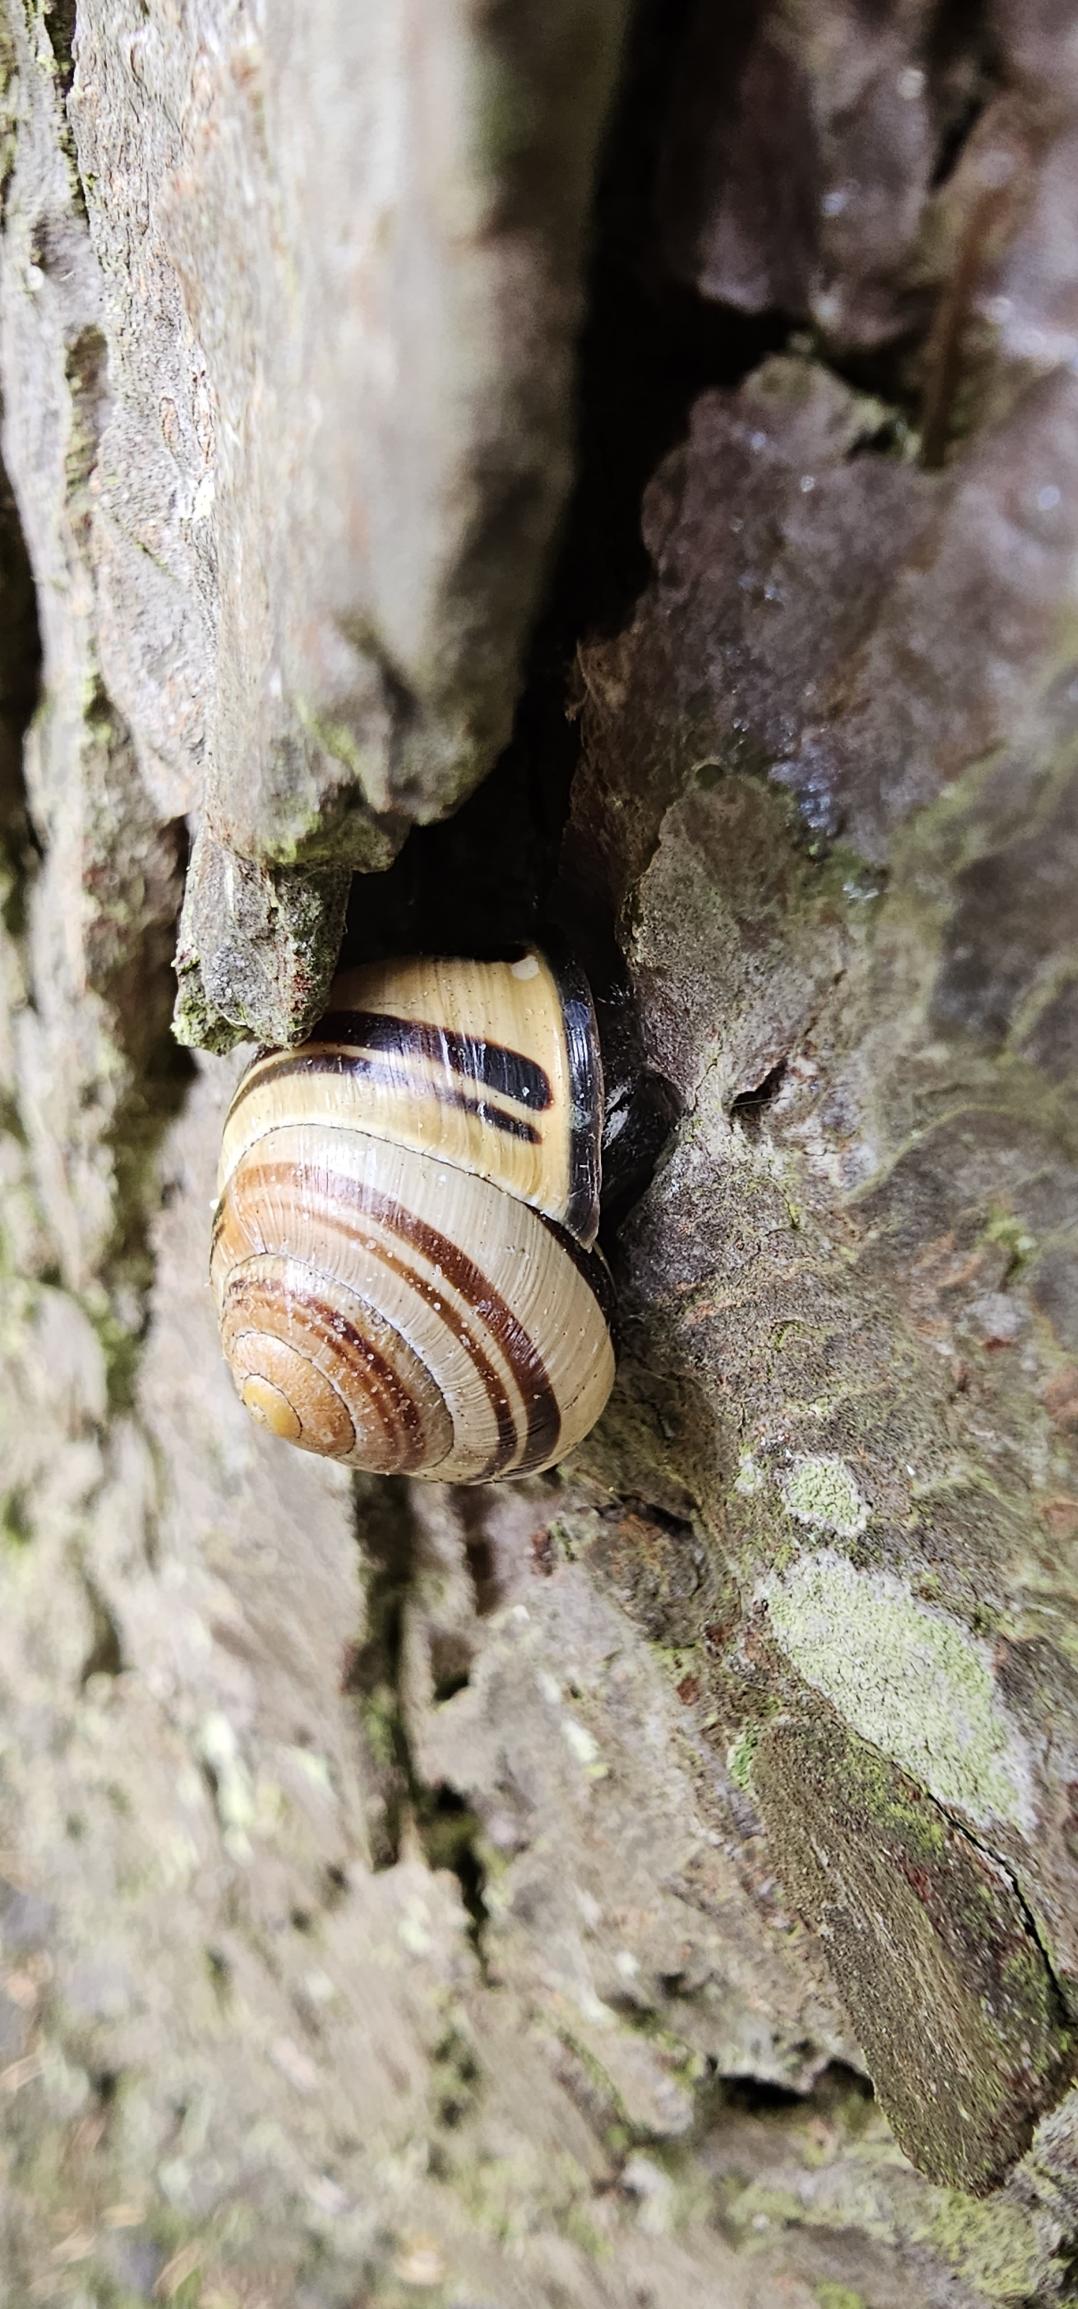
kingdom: Animalia
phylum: Mollusca
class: Gastropoda
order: Stylommatophora
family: Helicidae
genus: Cepaea
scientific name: Cepaea nemoralis
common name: Lundsnegl
